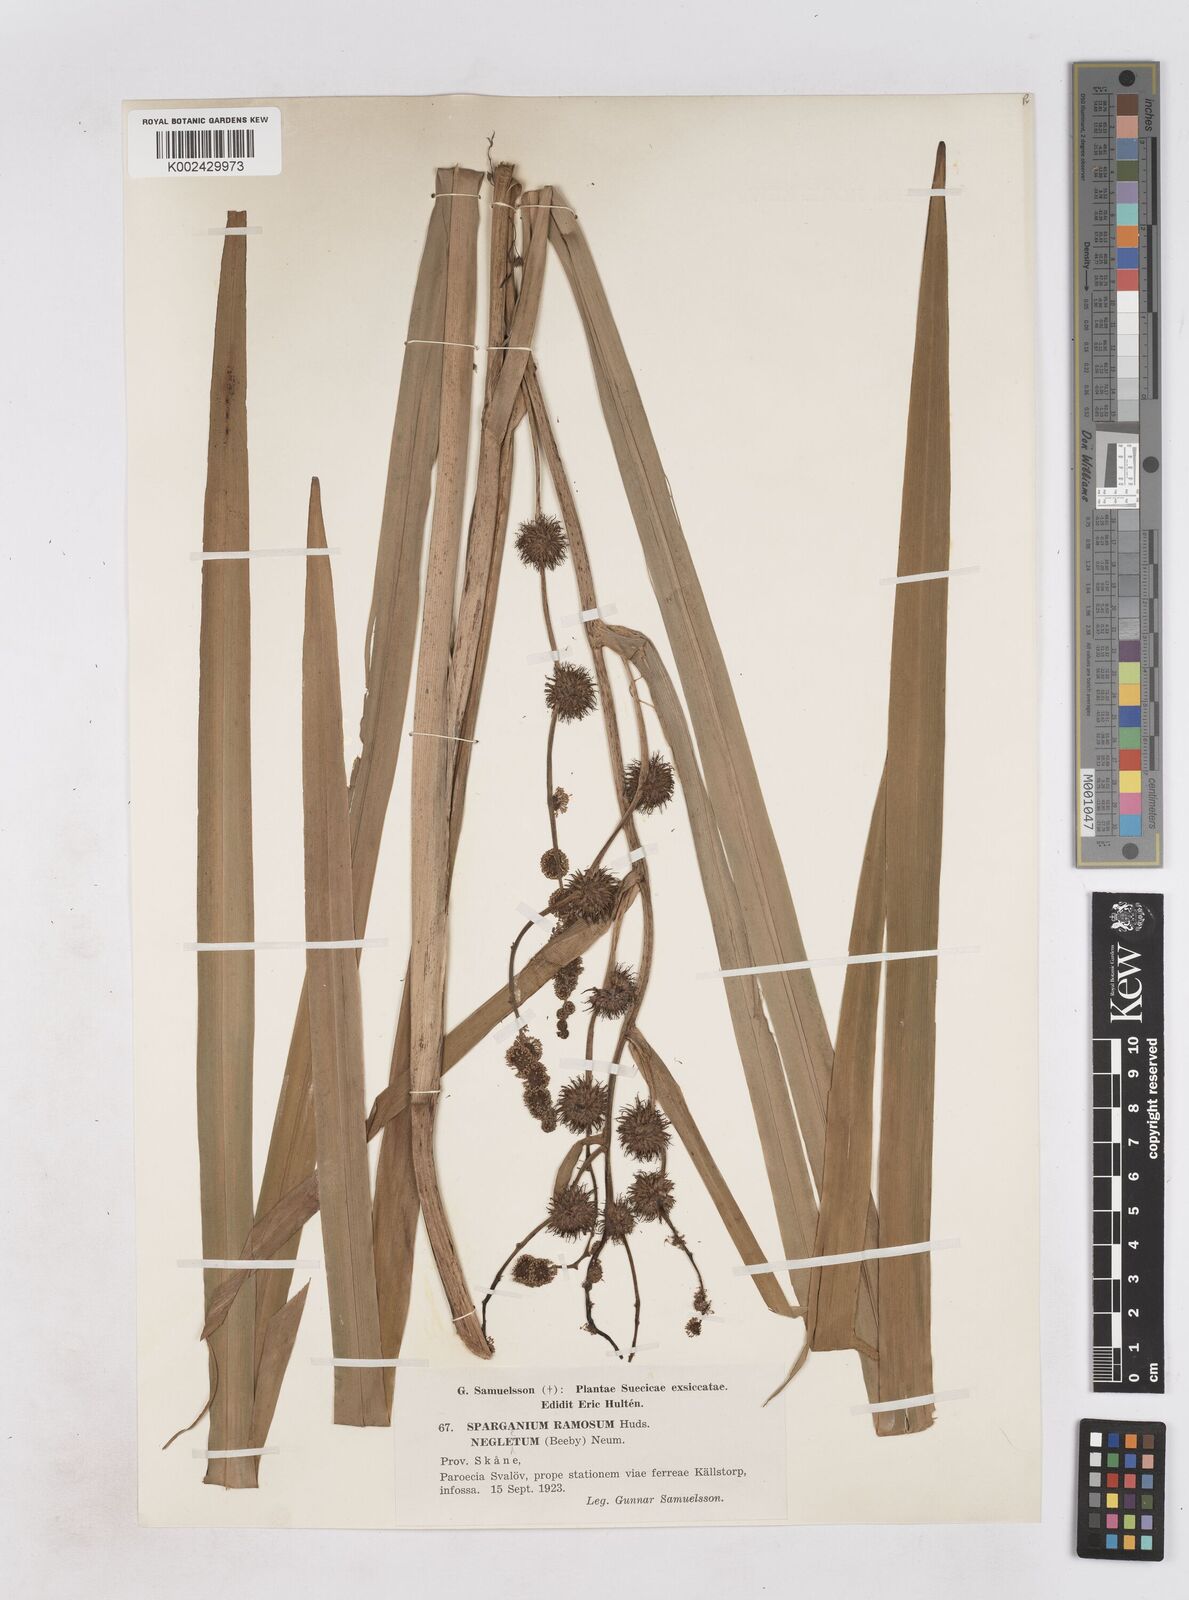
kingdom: Plantae
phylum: Tracheophyta
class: Liliopsida
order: Poales
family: Typhaceae
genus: Sparganium
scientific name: Sparganium erectum
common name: Branched bur-reed
